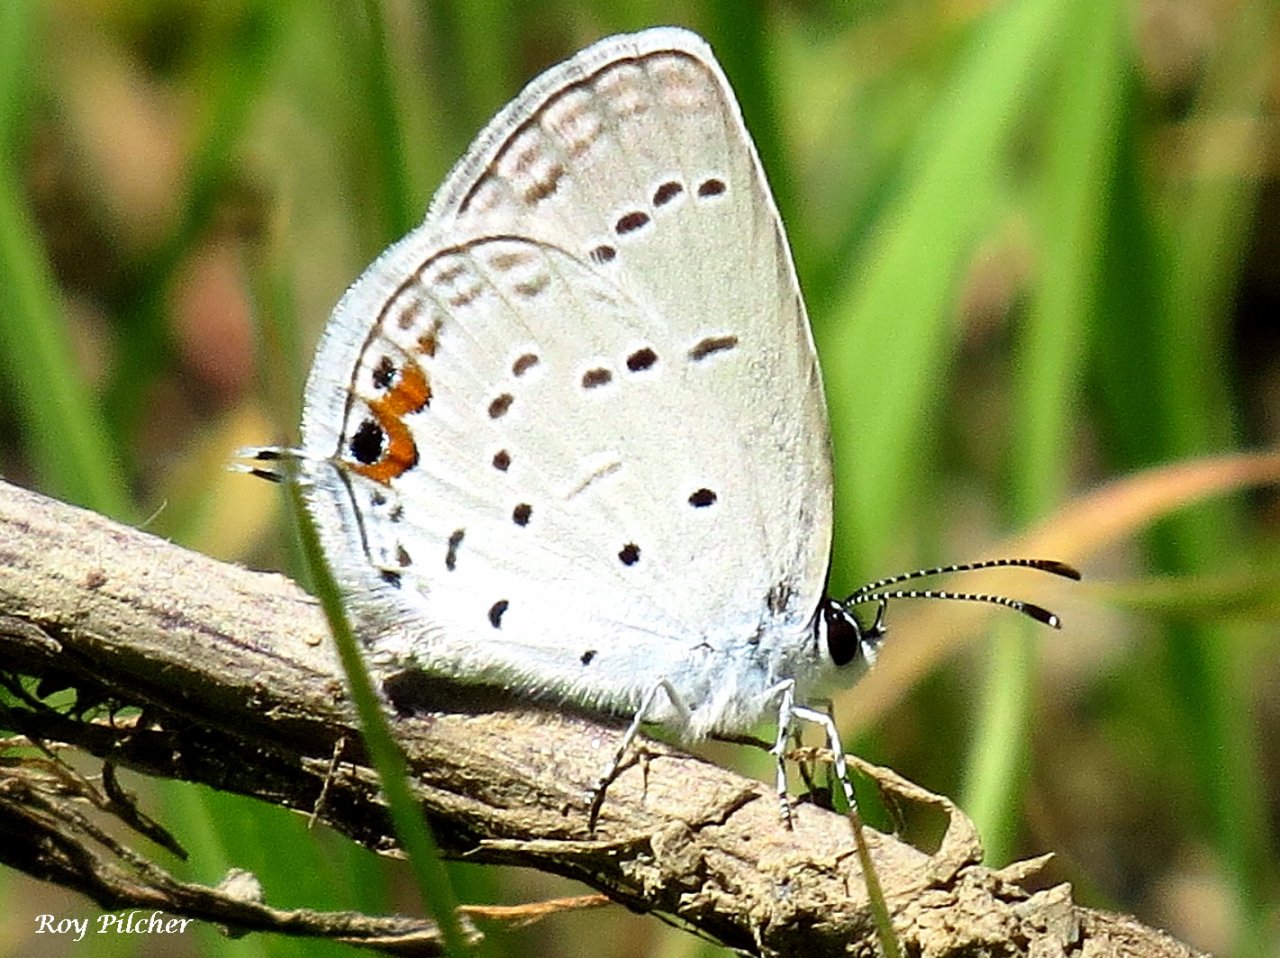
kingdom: Animalia
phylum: Arthropoda
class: Insecta
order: Lepidoptera
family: Lycaenidae
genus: Elkalyce
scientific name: Elkalyce comyntas
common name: Eastern Tailed-Blue
